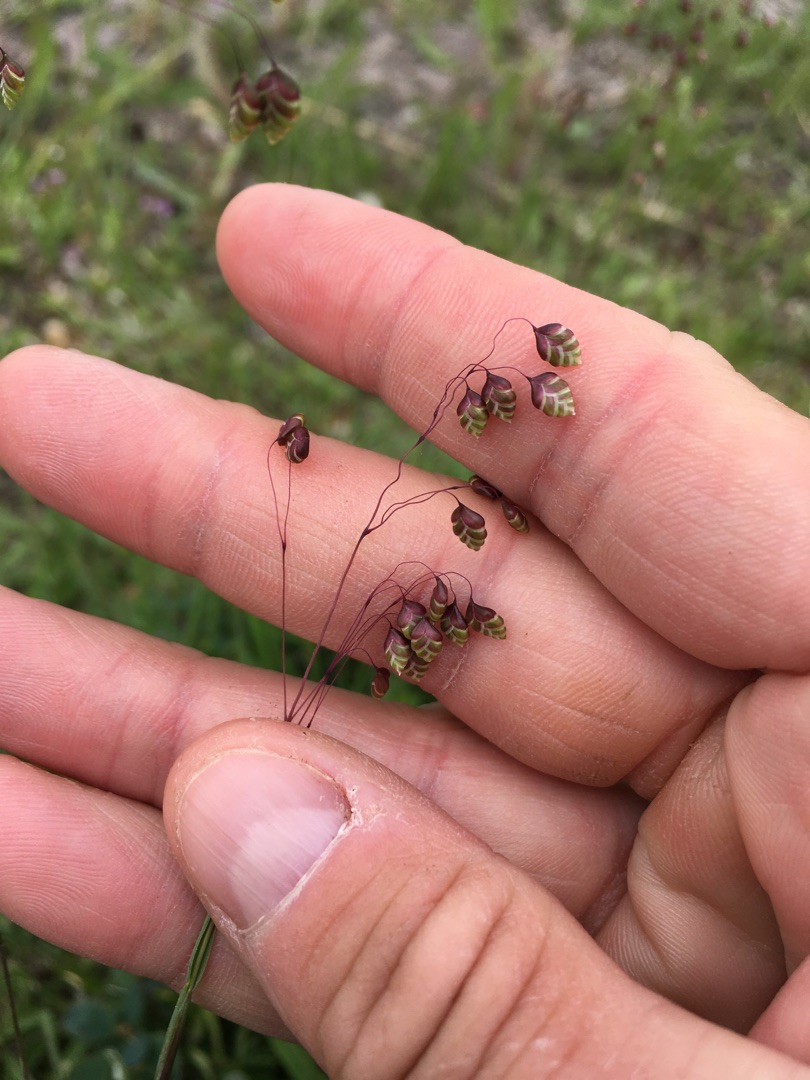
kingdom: Plantae
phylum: Tracheophyta
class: Liliopsida
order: Poales
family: Poaceae
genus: Briza
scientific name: Briza media
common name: Hjertegræs
